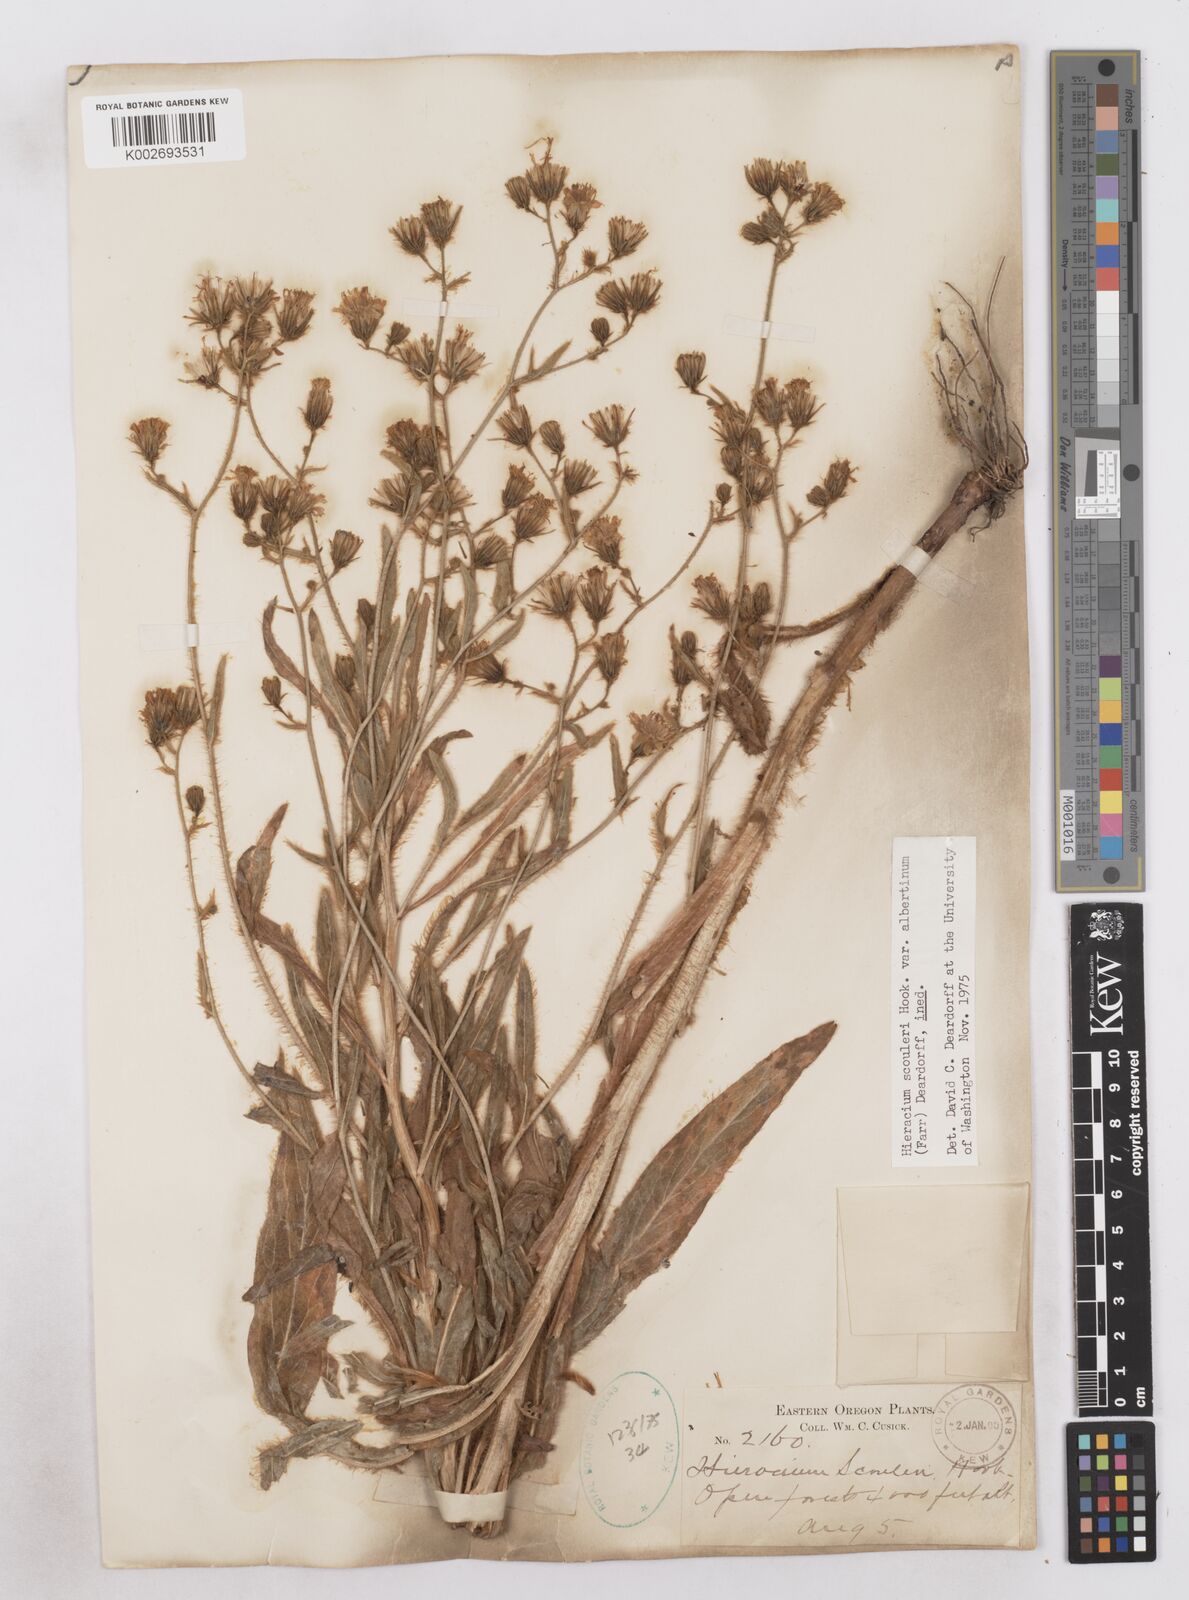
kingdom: Plantae
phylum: Tracheophyta
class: Magnoliopsida
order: Asterales
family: Asteraceae
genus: Hieracium
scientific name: Hieracium nudicaule
